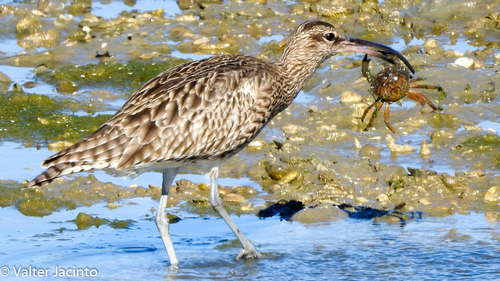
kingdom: Animalia
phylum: Chordata
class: Aves
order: Charadriiformes
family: Scolopacidae
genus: Numenius
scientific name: Numenius phaeopus
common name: Whimbrel
